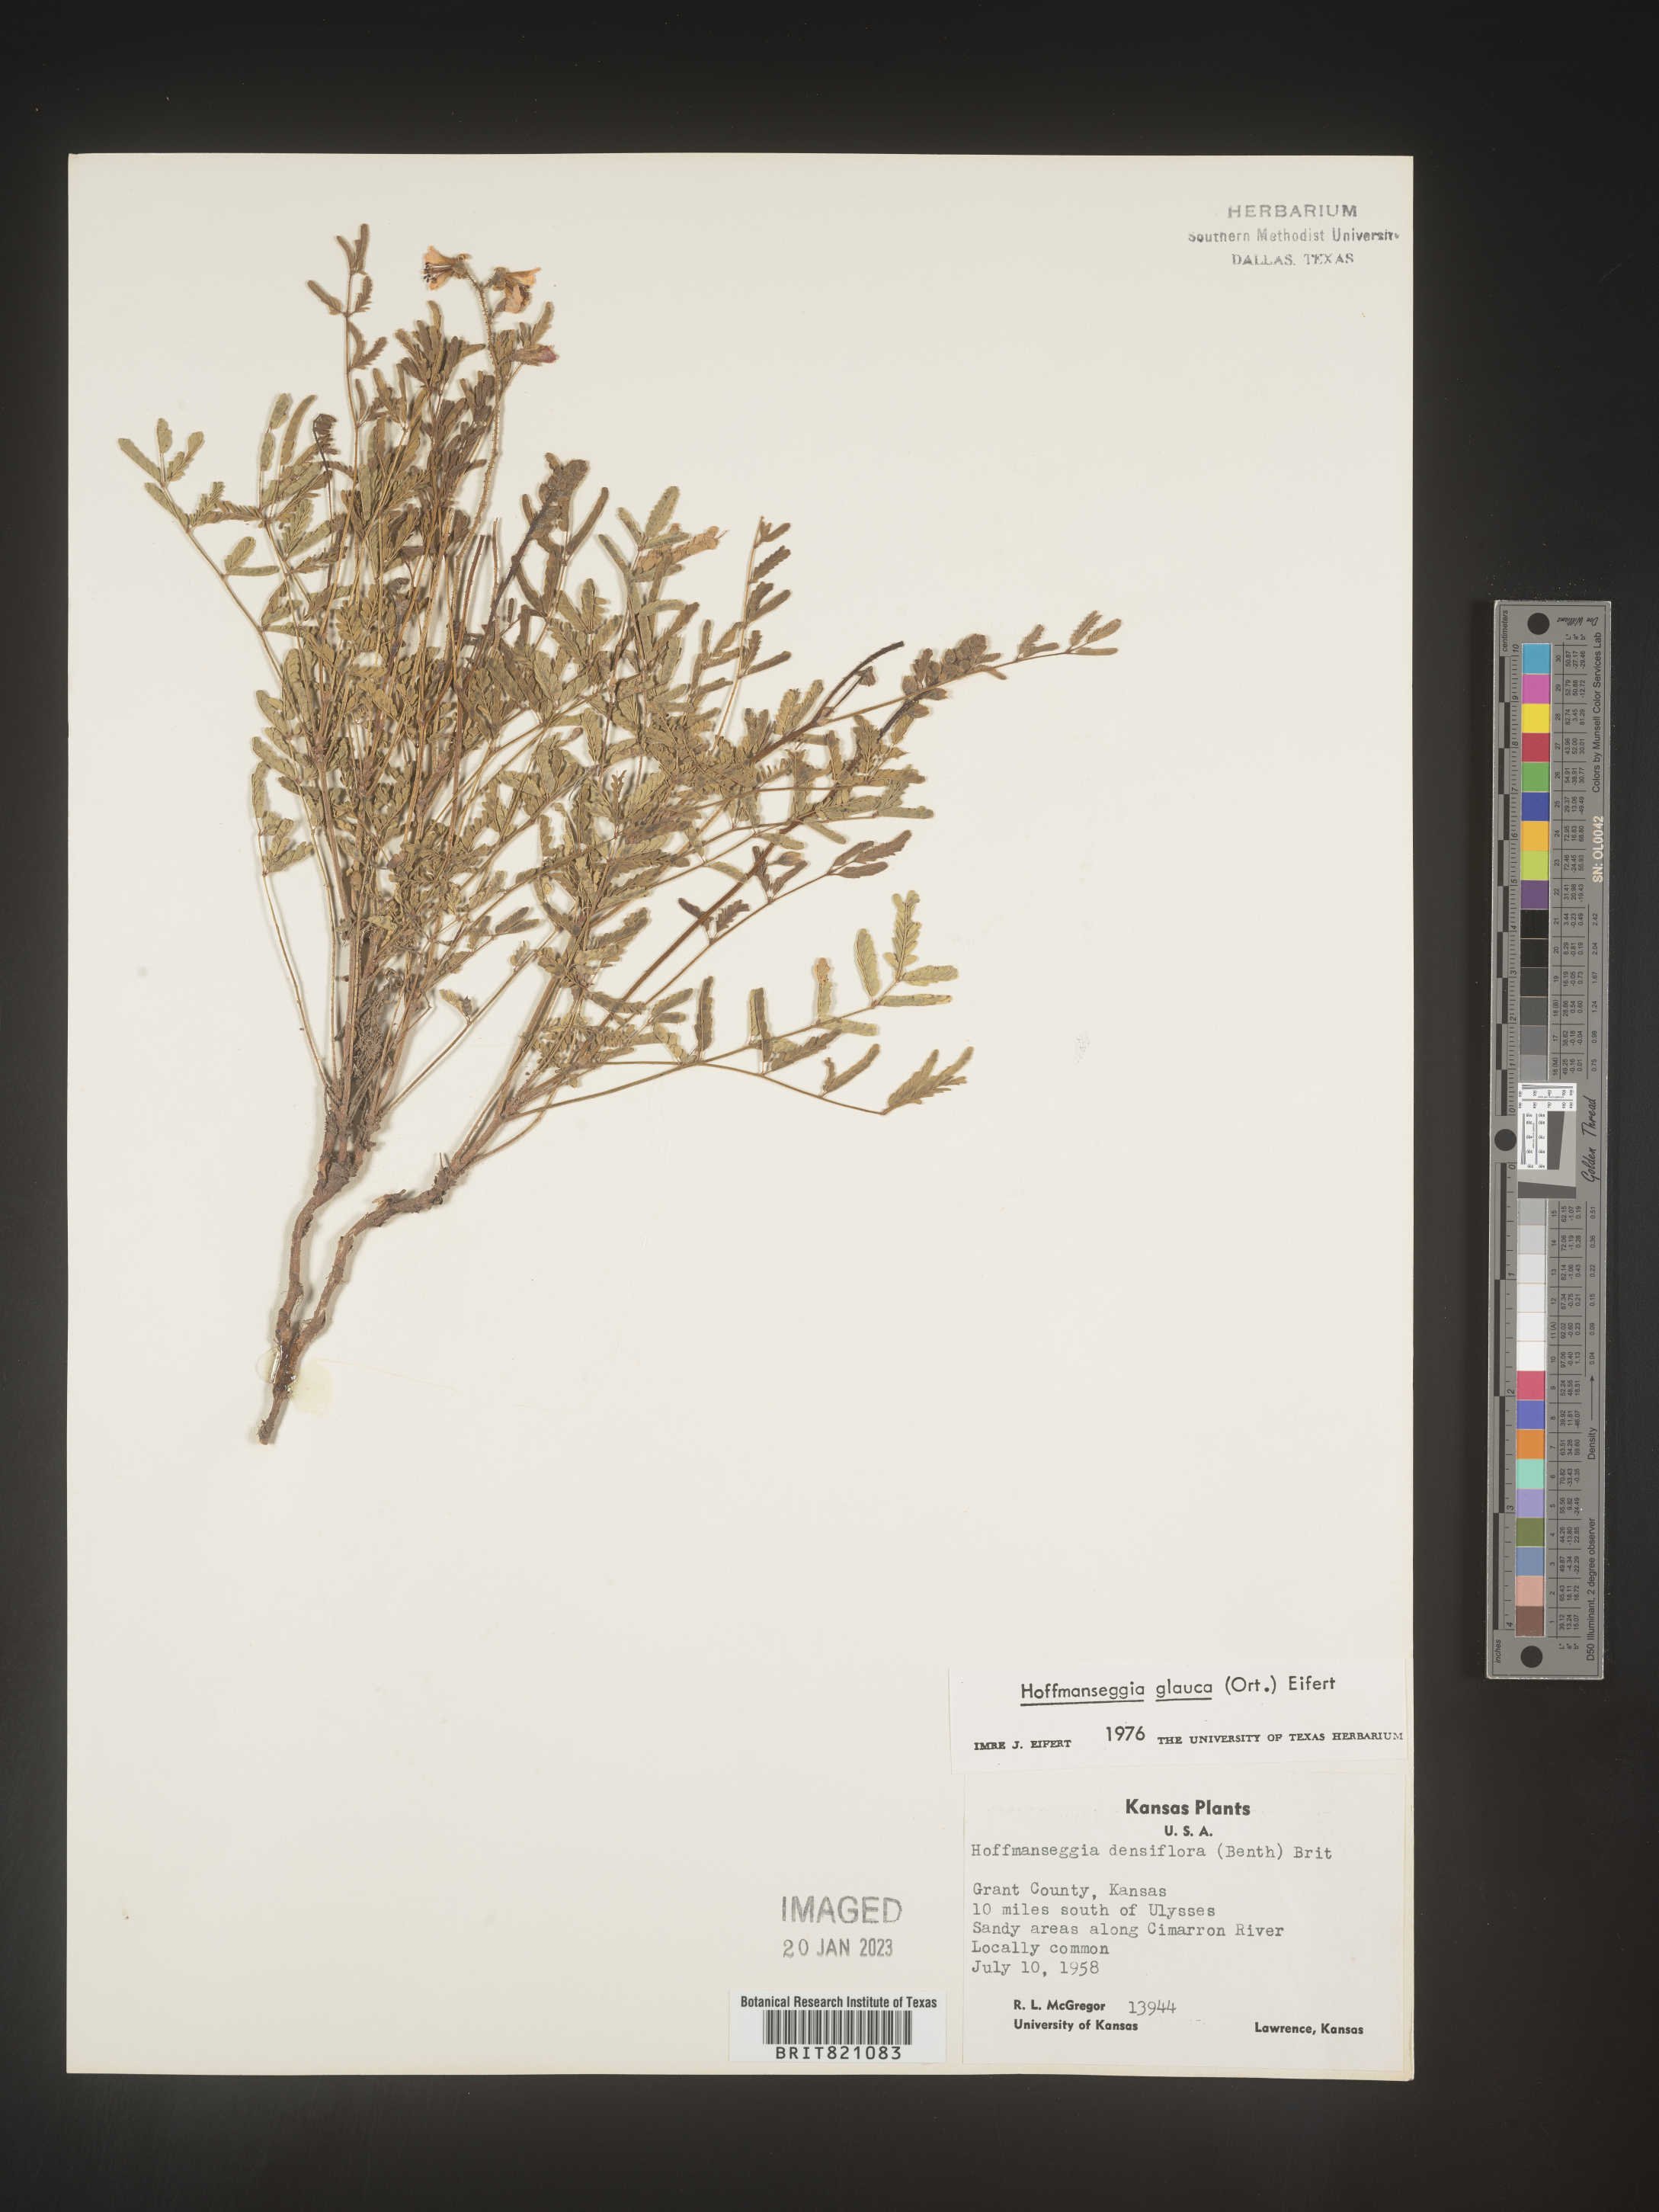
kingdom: Plantae
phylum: Tracheophyta
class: Magnoliopsida
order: Fabales
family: Fabaceae
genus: Hoffmannseggia
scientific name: Hoffmannseggia
